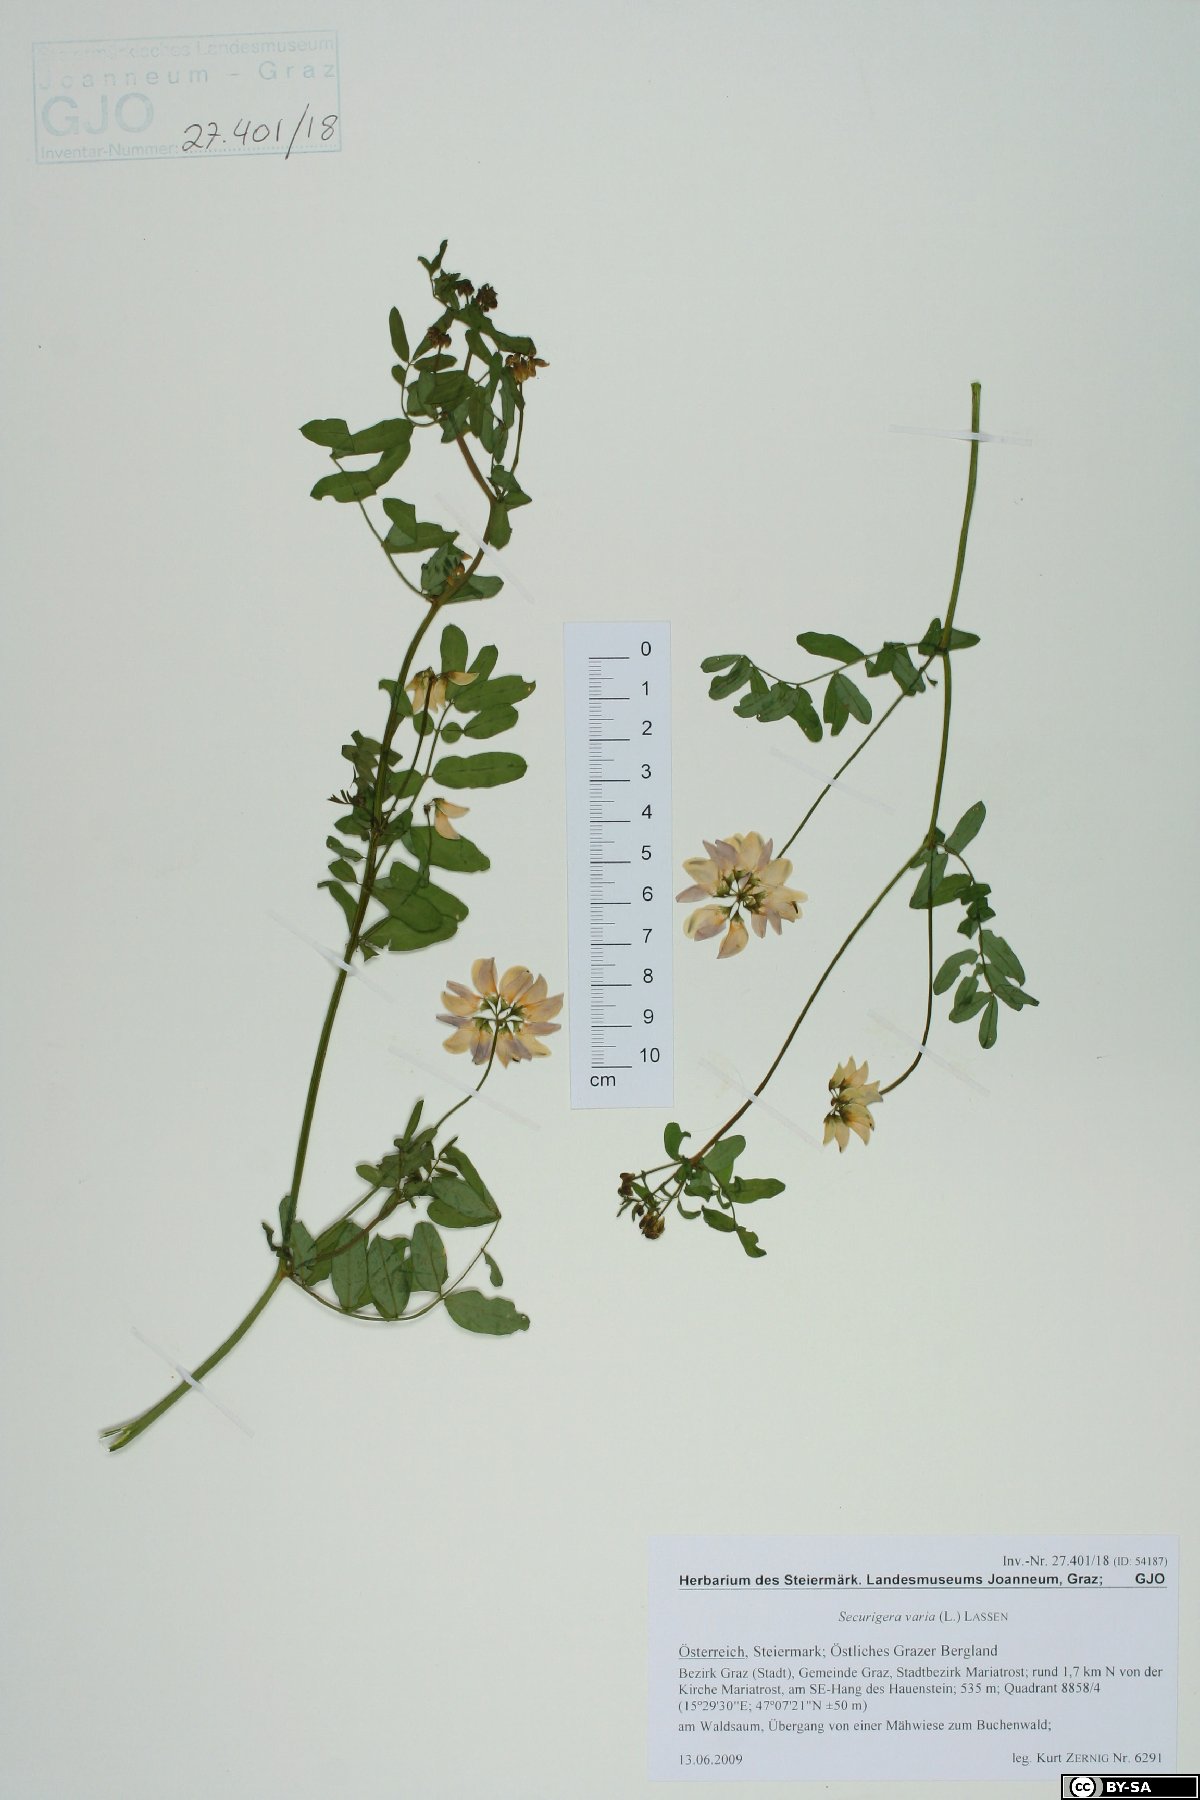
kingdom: Plantae
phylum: Tracheophyta
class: Magnoliopsida
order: Fabales
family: Fabaceae
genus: Coronilla
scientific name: Coronilla varia
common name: Crownvetch
